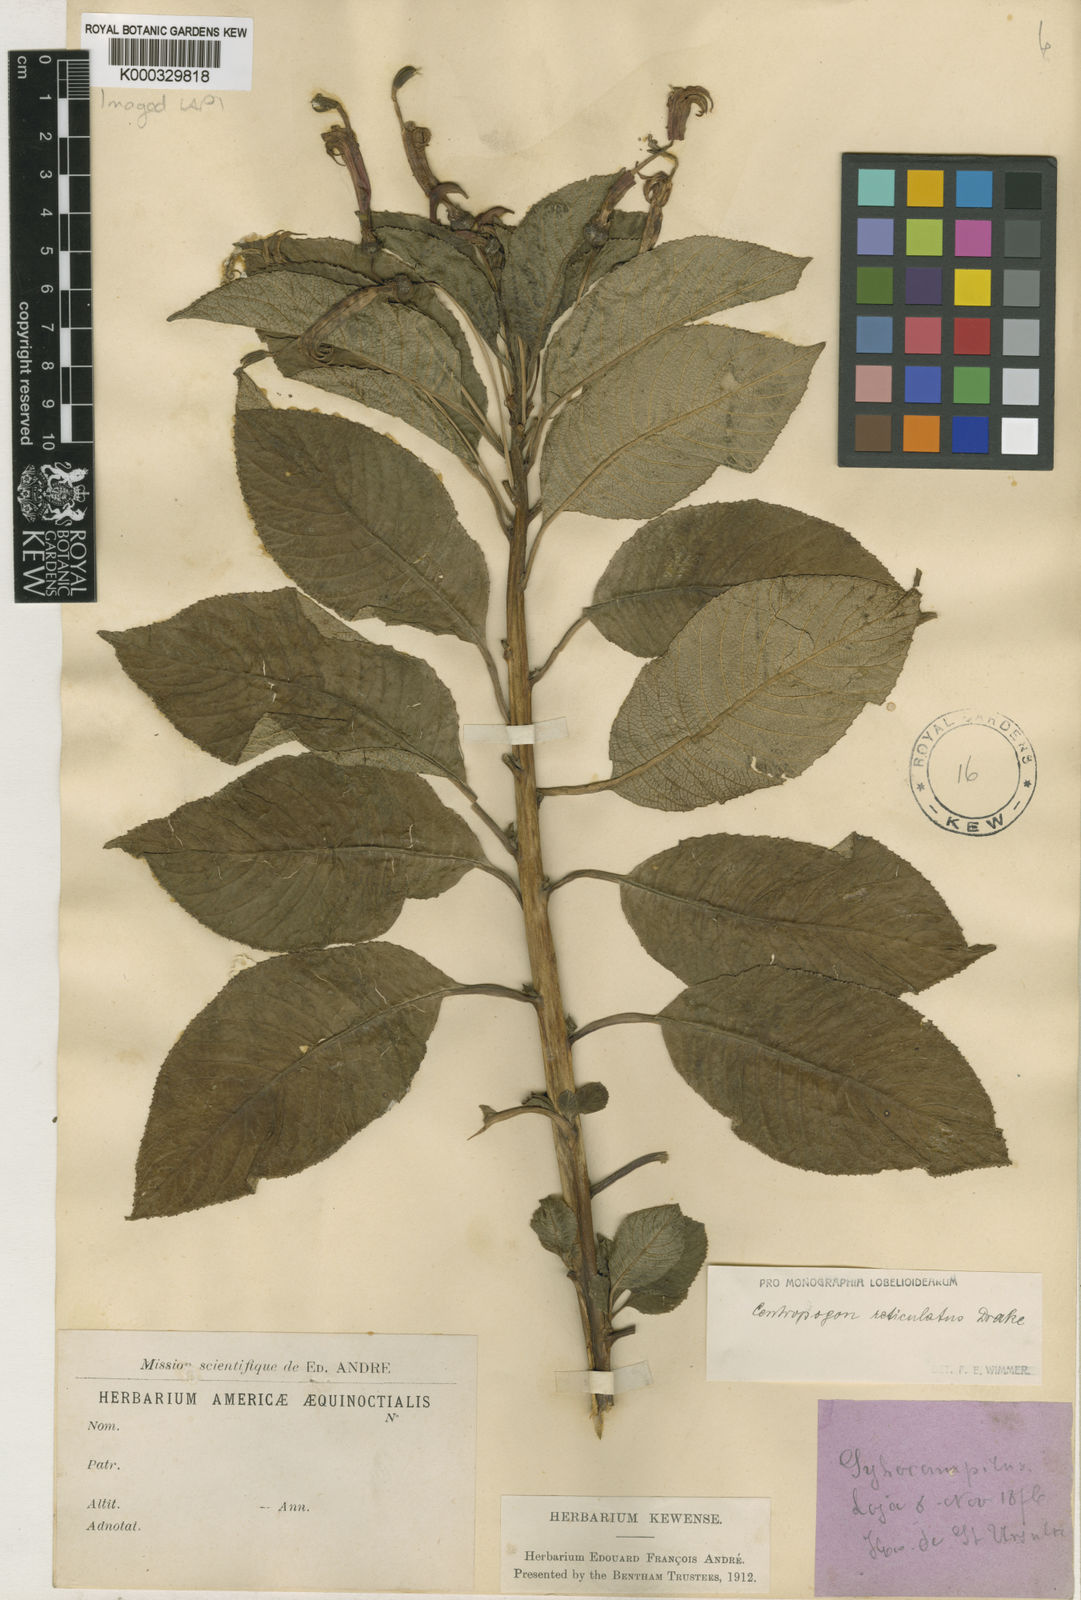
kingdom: Plantae
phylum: Tracheophyta
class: Magnoliopsida
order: Asterales
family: Campanulaceae
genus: Centropogon
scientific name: Centropogon reticulatus
